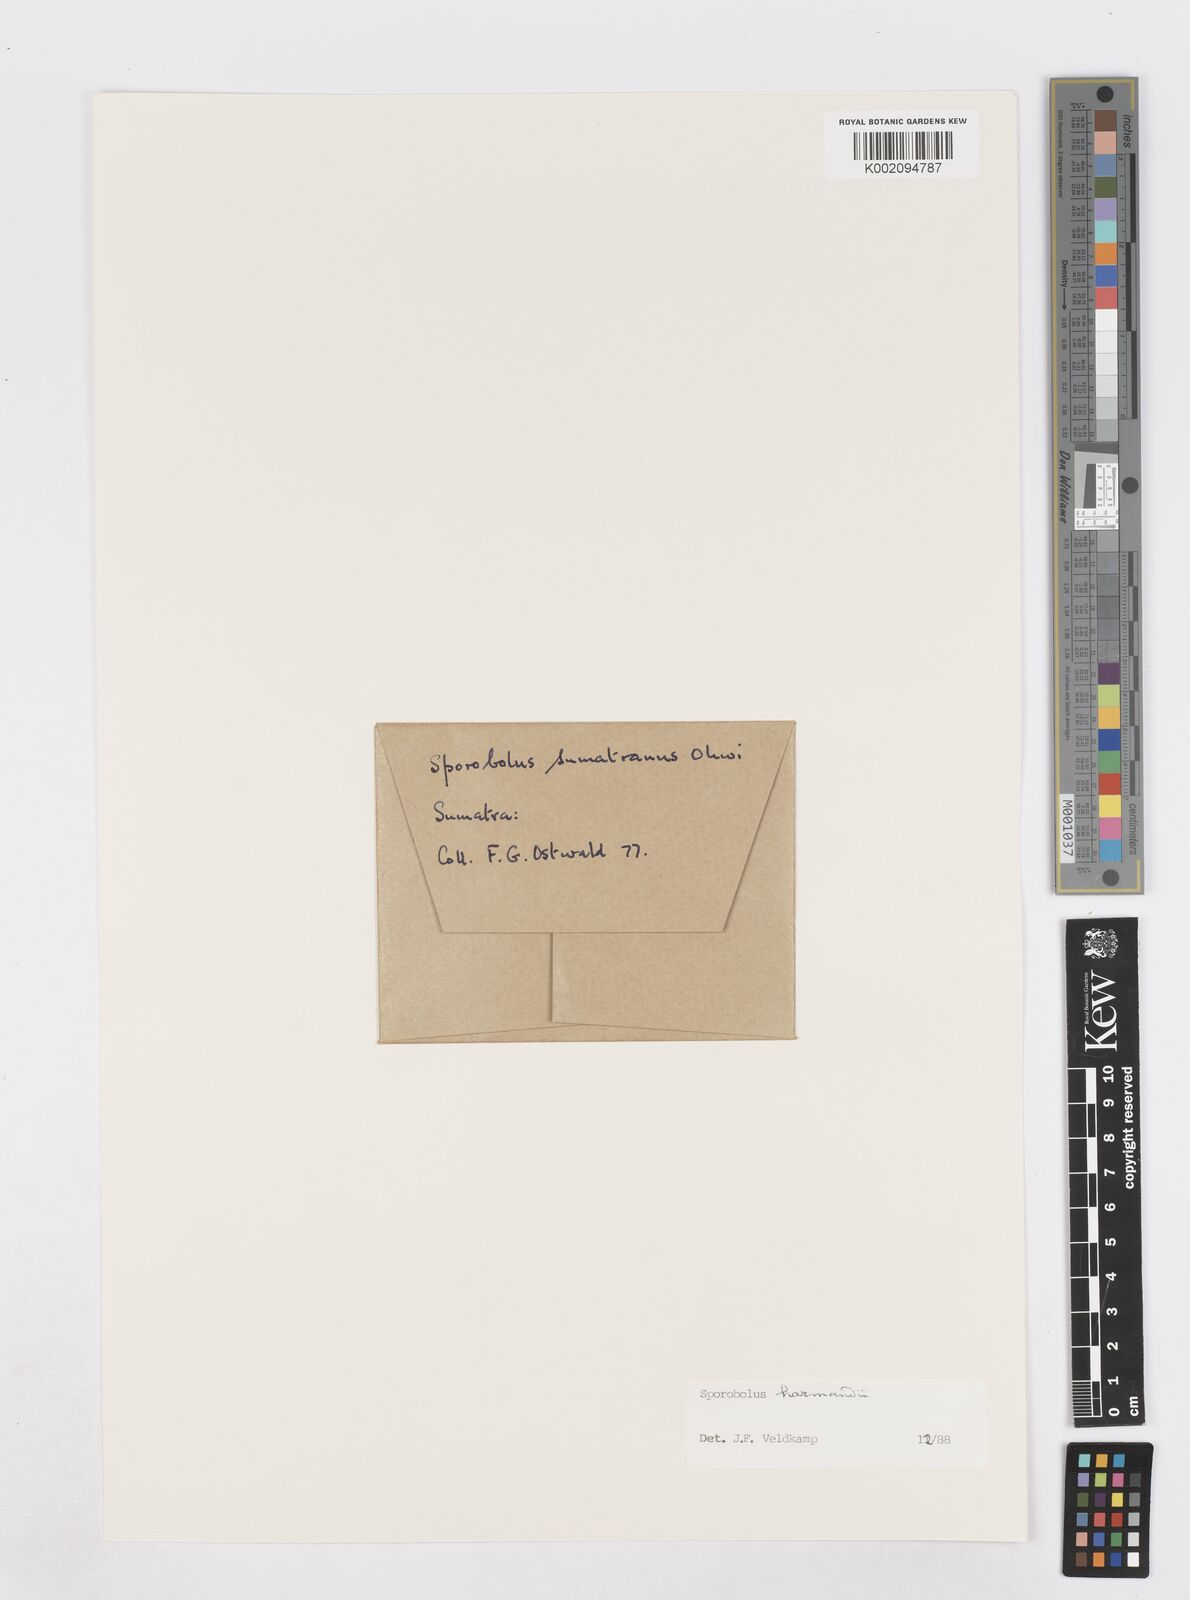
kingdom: Plantae
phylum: Tracheophyta
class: Liliopsida
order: Poales
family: Poaceae
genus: Sporobolus
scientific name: Sporobolus harmandii
